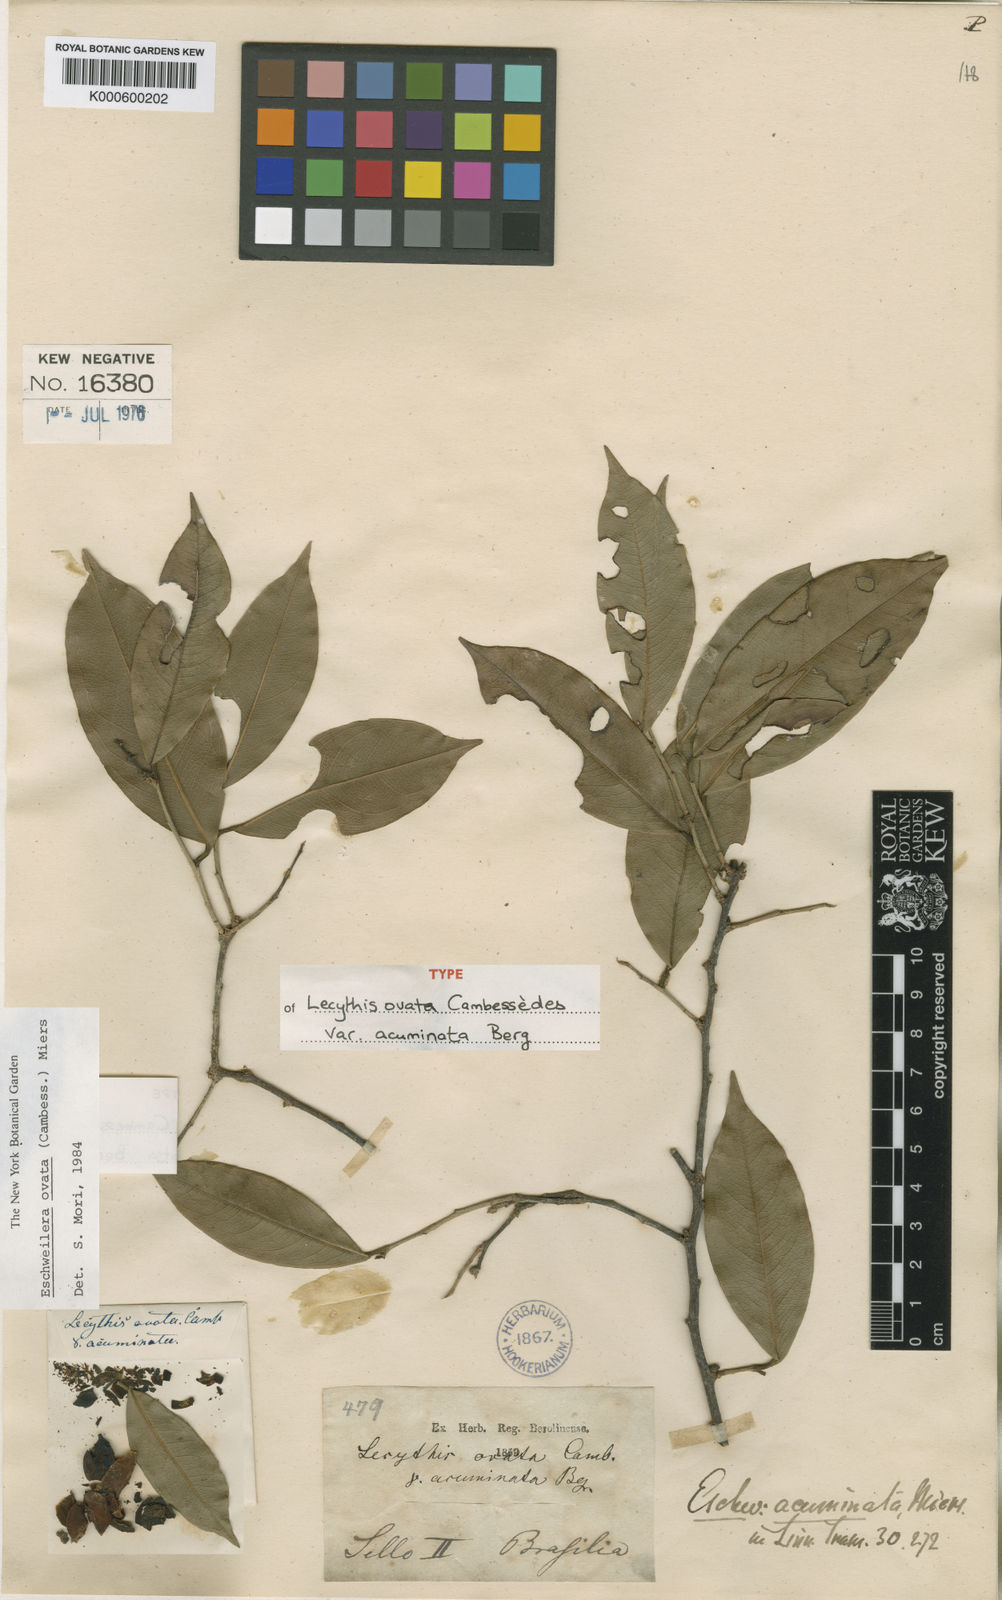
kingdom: Plantae
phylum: Tracheophyta
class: Magnoliopsida
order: Ericales
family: Lecythidaceae
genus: Eschweilera
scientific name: Eschweilera ovata
